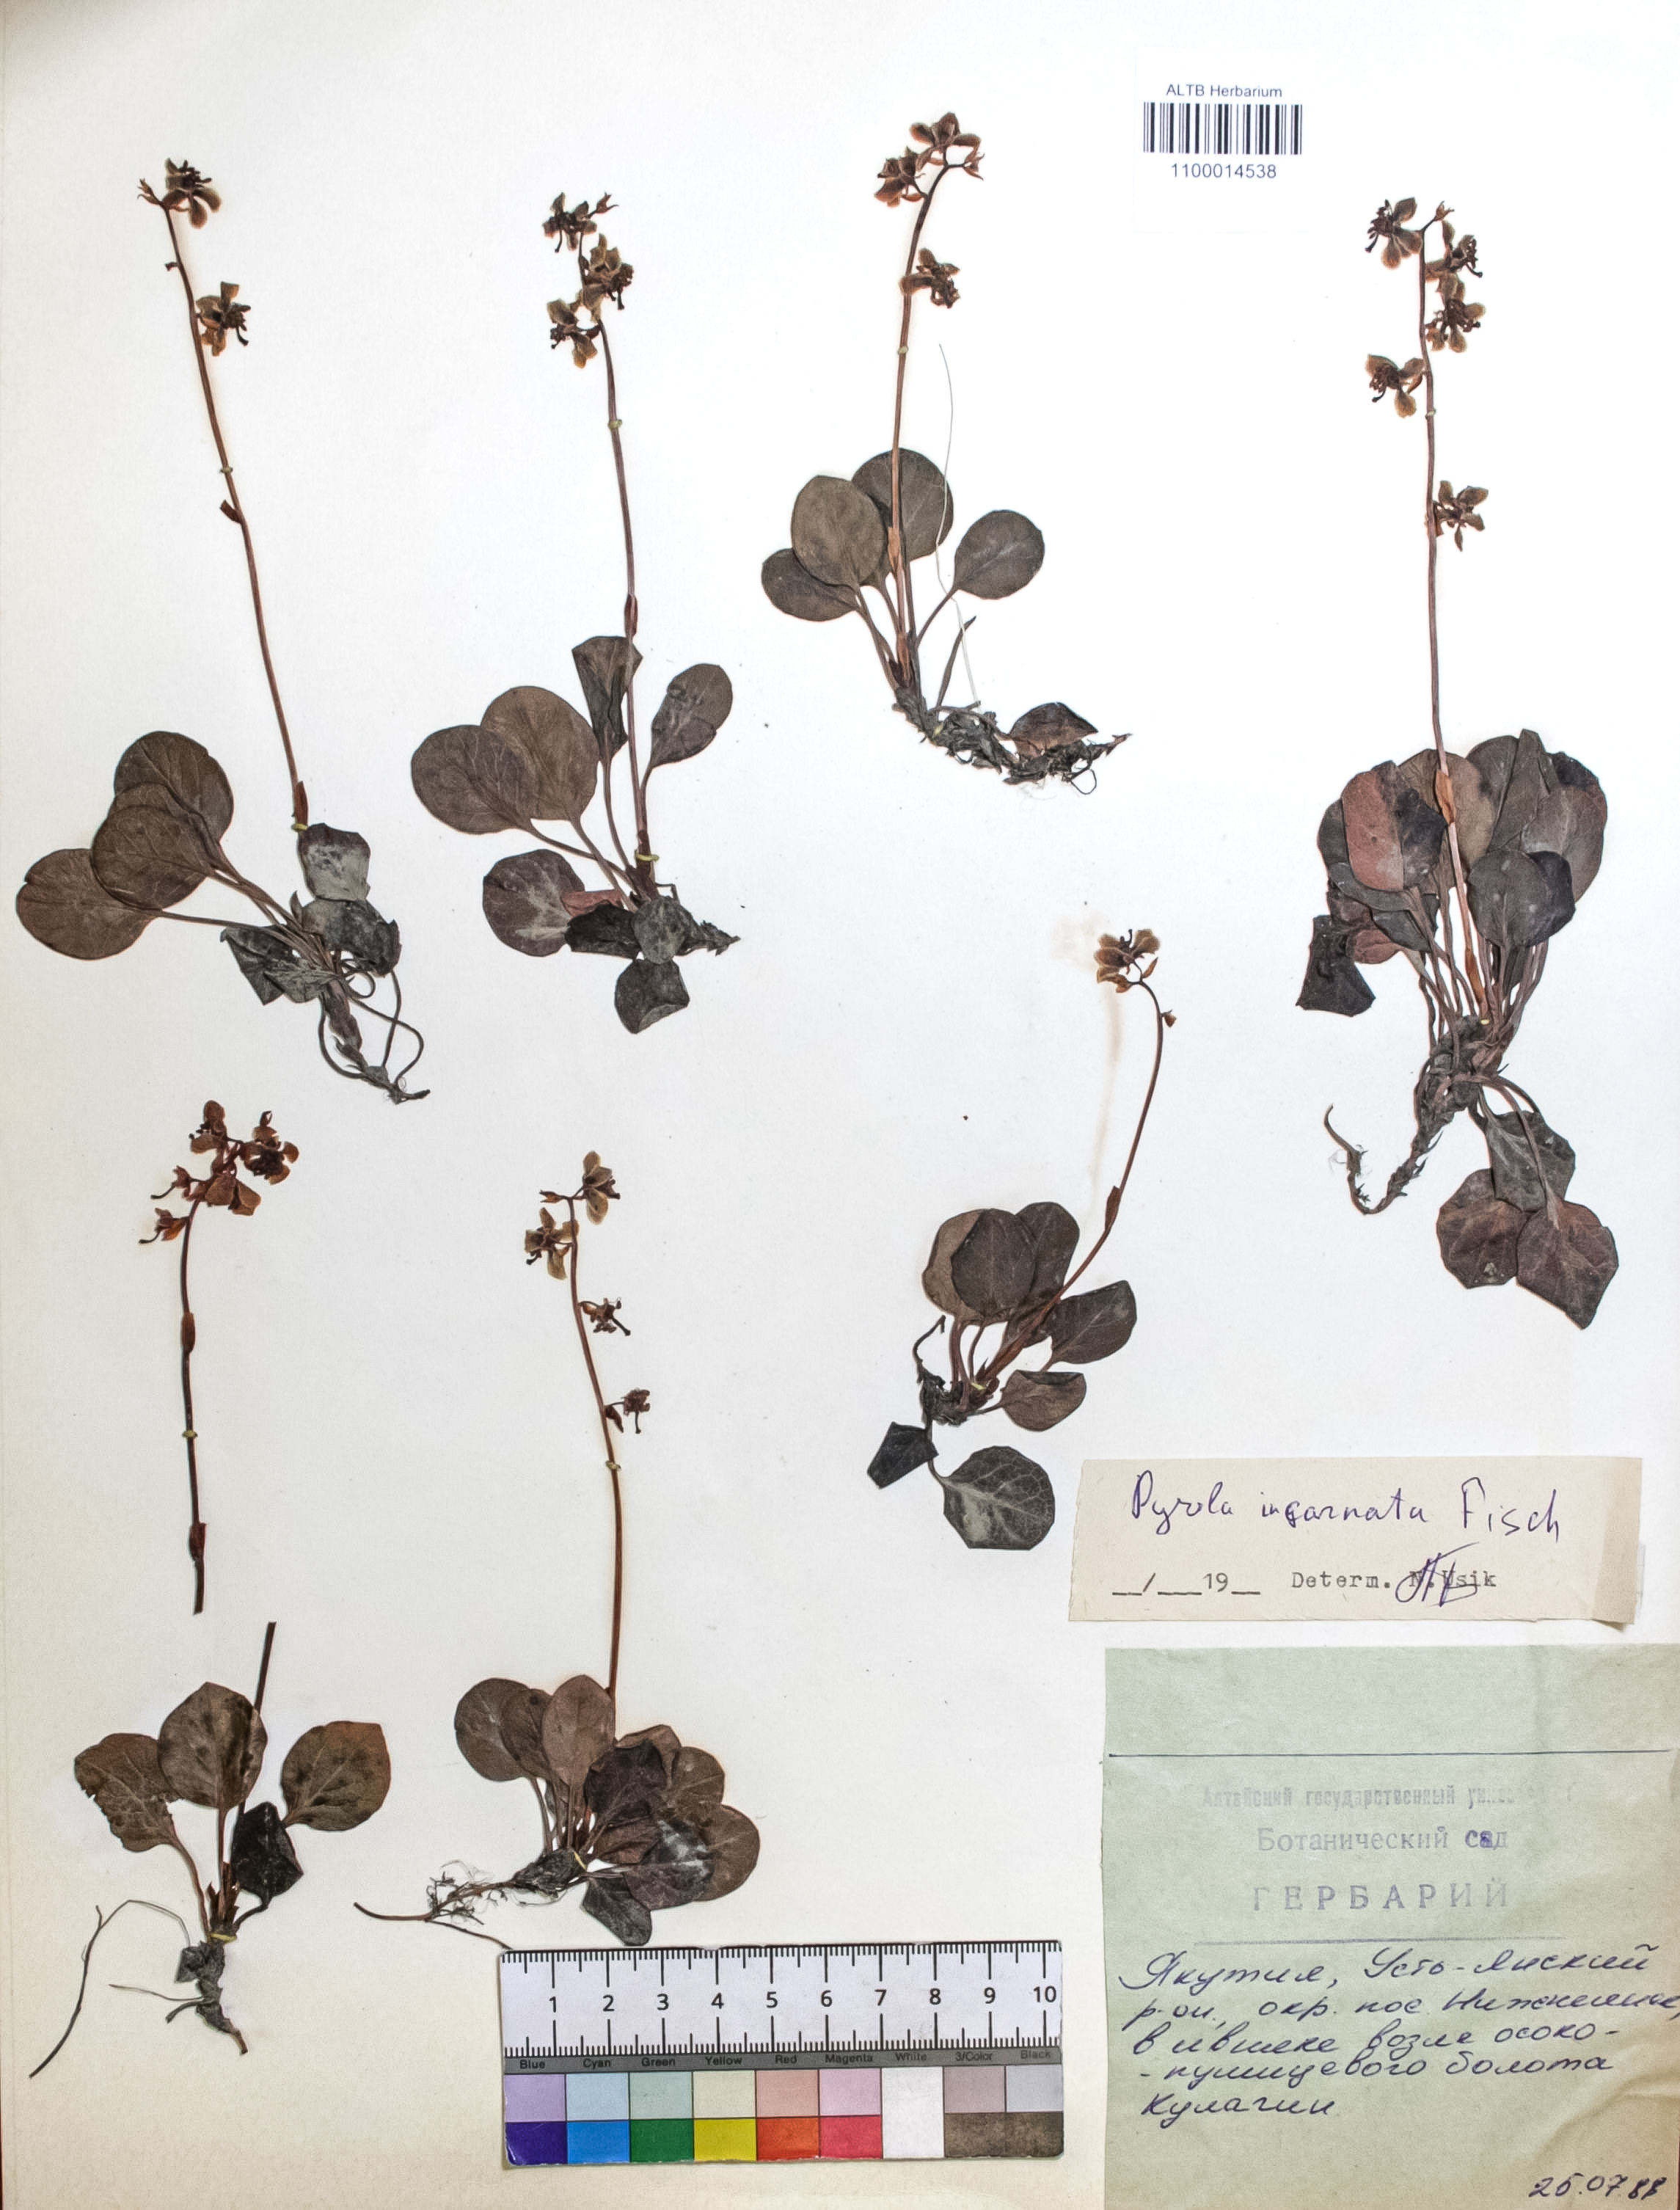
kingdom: Plantae
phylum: Tracheophyta
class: Magnoliopsida
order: Ericales
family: Ericaceae
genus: Pyrola
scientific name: Pyrola asarifolia
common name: Bog wintergreen
